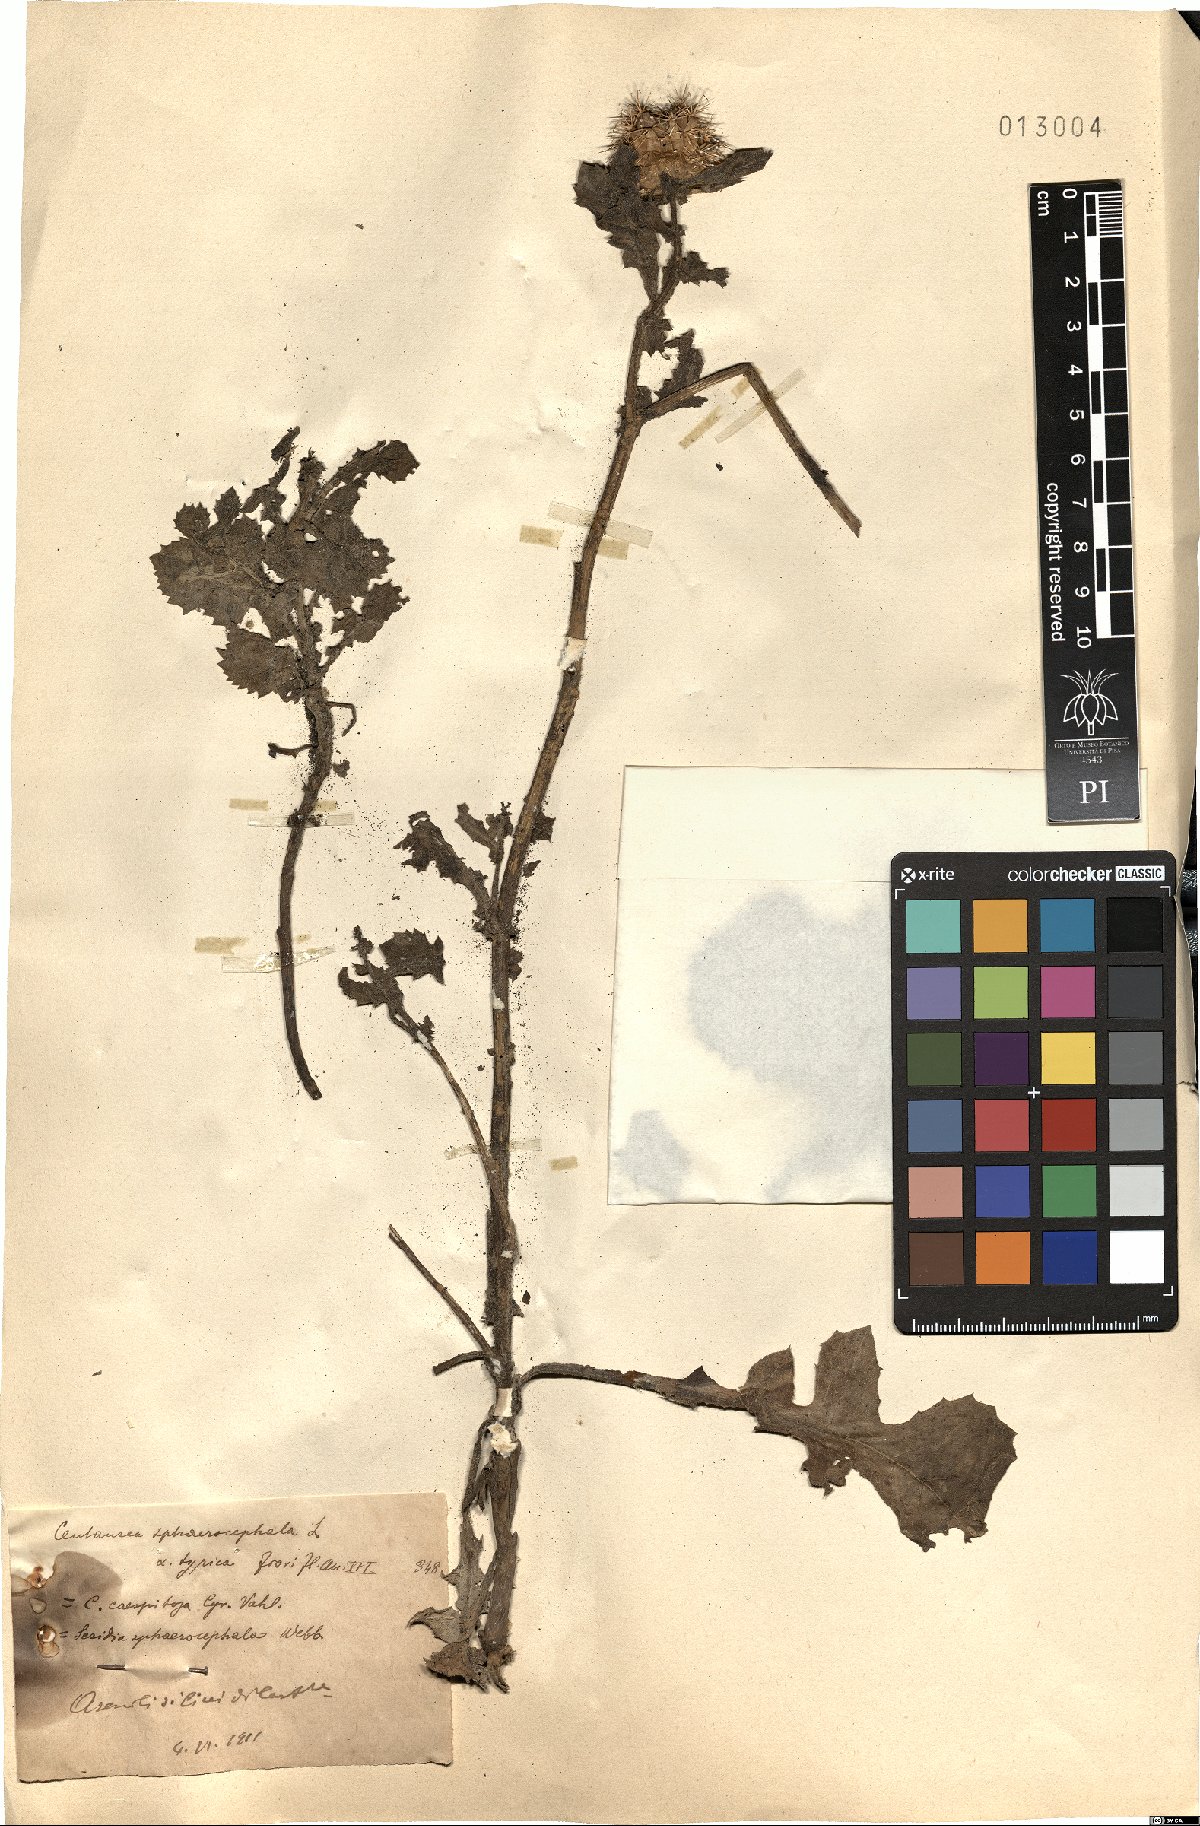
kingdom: Plantae
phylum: Tracheophyta
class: Magnoliopsida
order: Asterales
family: Asteraceae
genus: Centaurea
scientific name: Centaurea sphaerocephala
